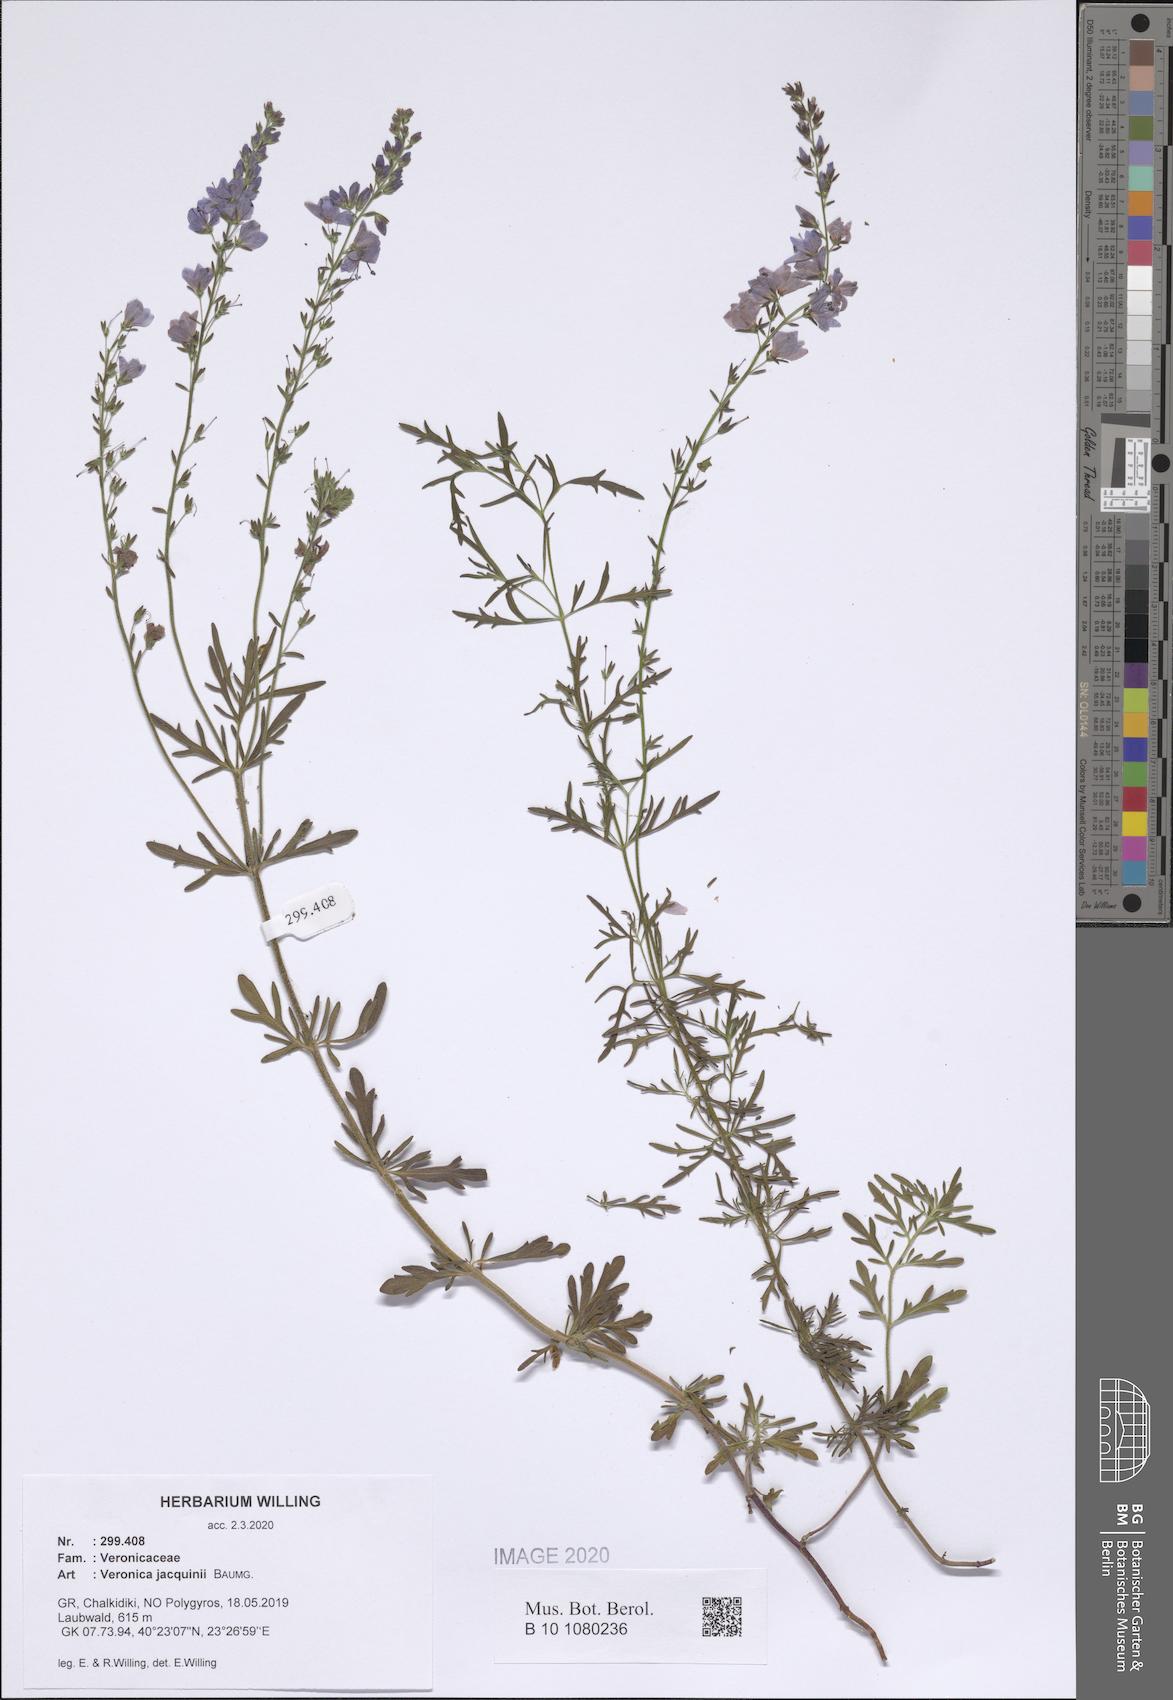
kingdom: Plantae
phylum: Tracheophyta
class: Magnoliopsida
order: Lamiales
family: Plantaginaceae
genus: Veronica
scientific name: Veronica austriaca
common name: Large speedwell
